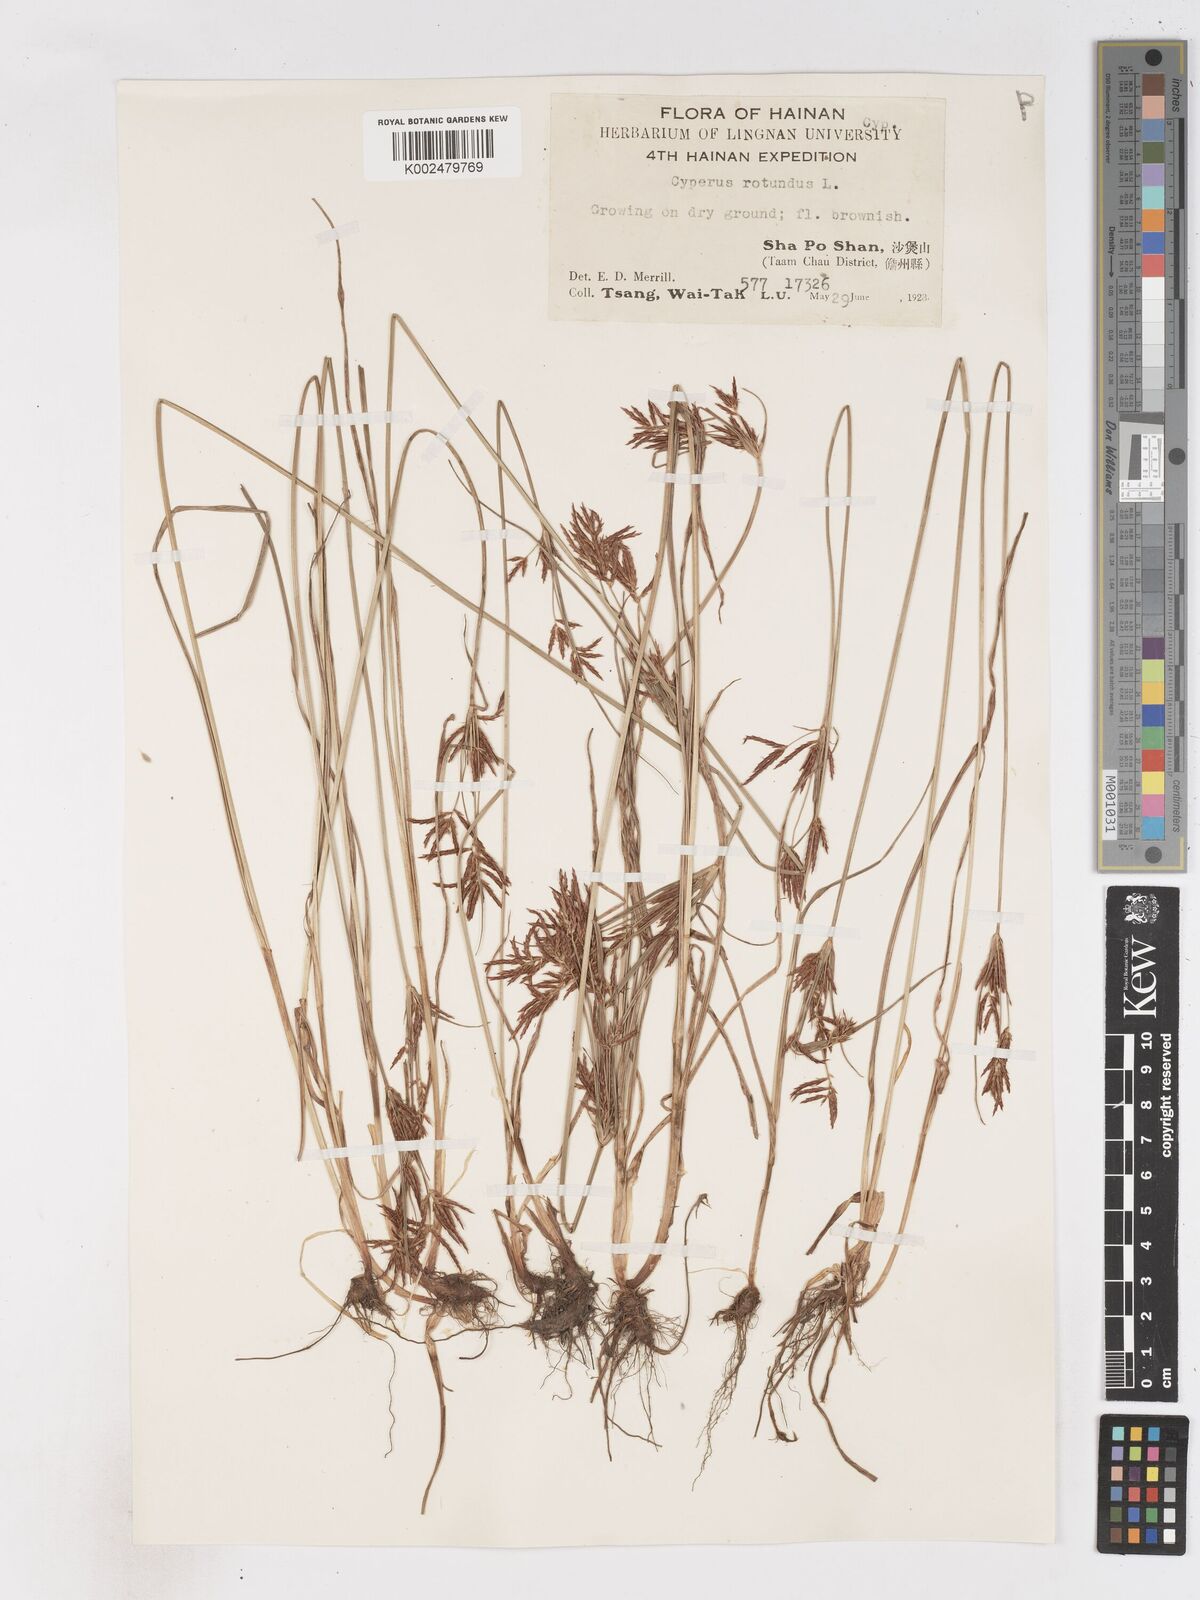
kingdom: Plantae
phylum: Tracheophyta
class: Liliopsida
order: Poales
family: Cyperaceae
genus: Cyperus
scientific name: Cyperus rotundus
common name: Nutgrass
